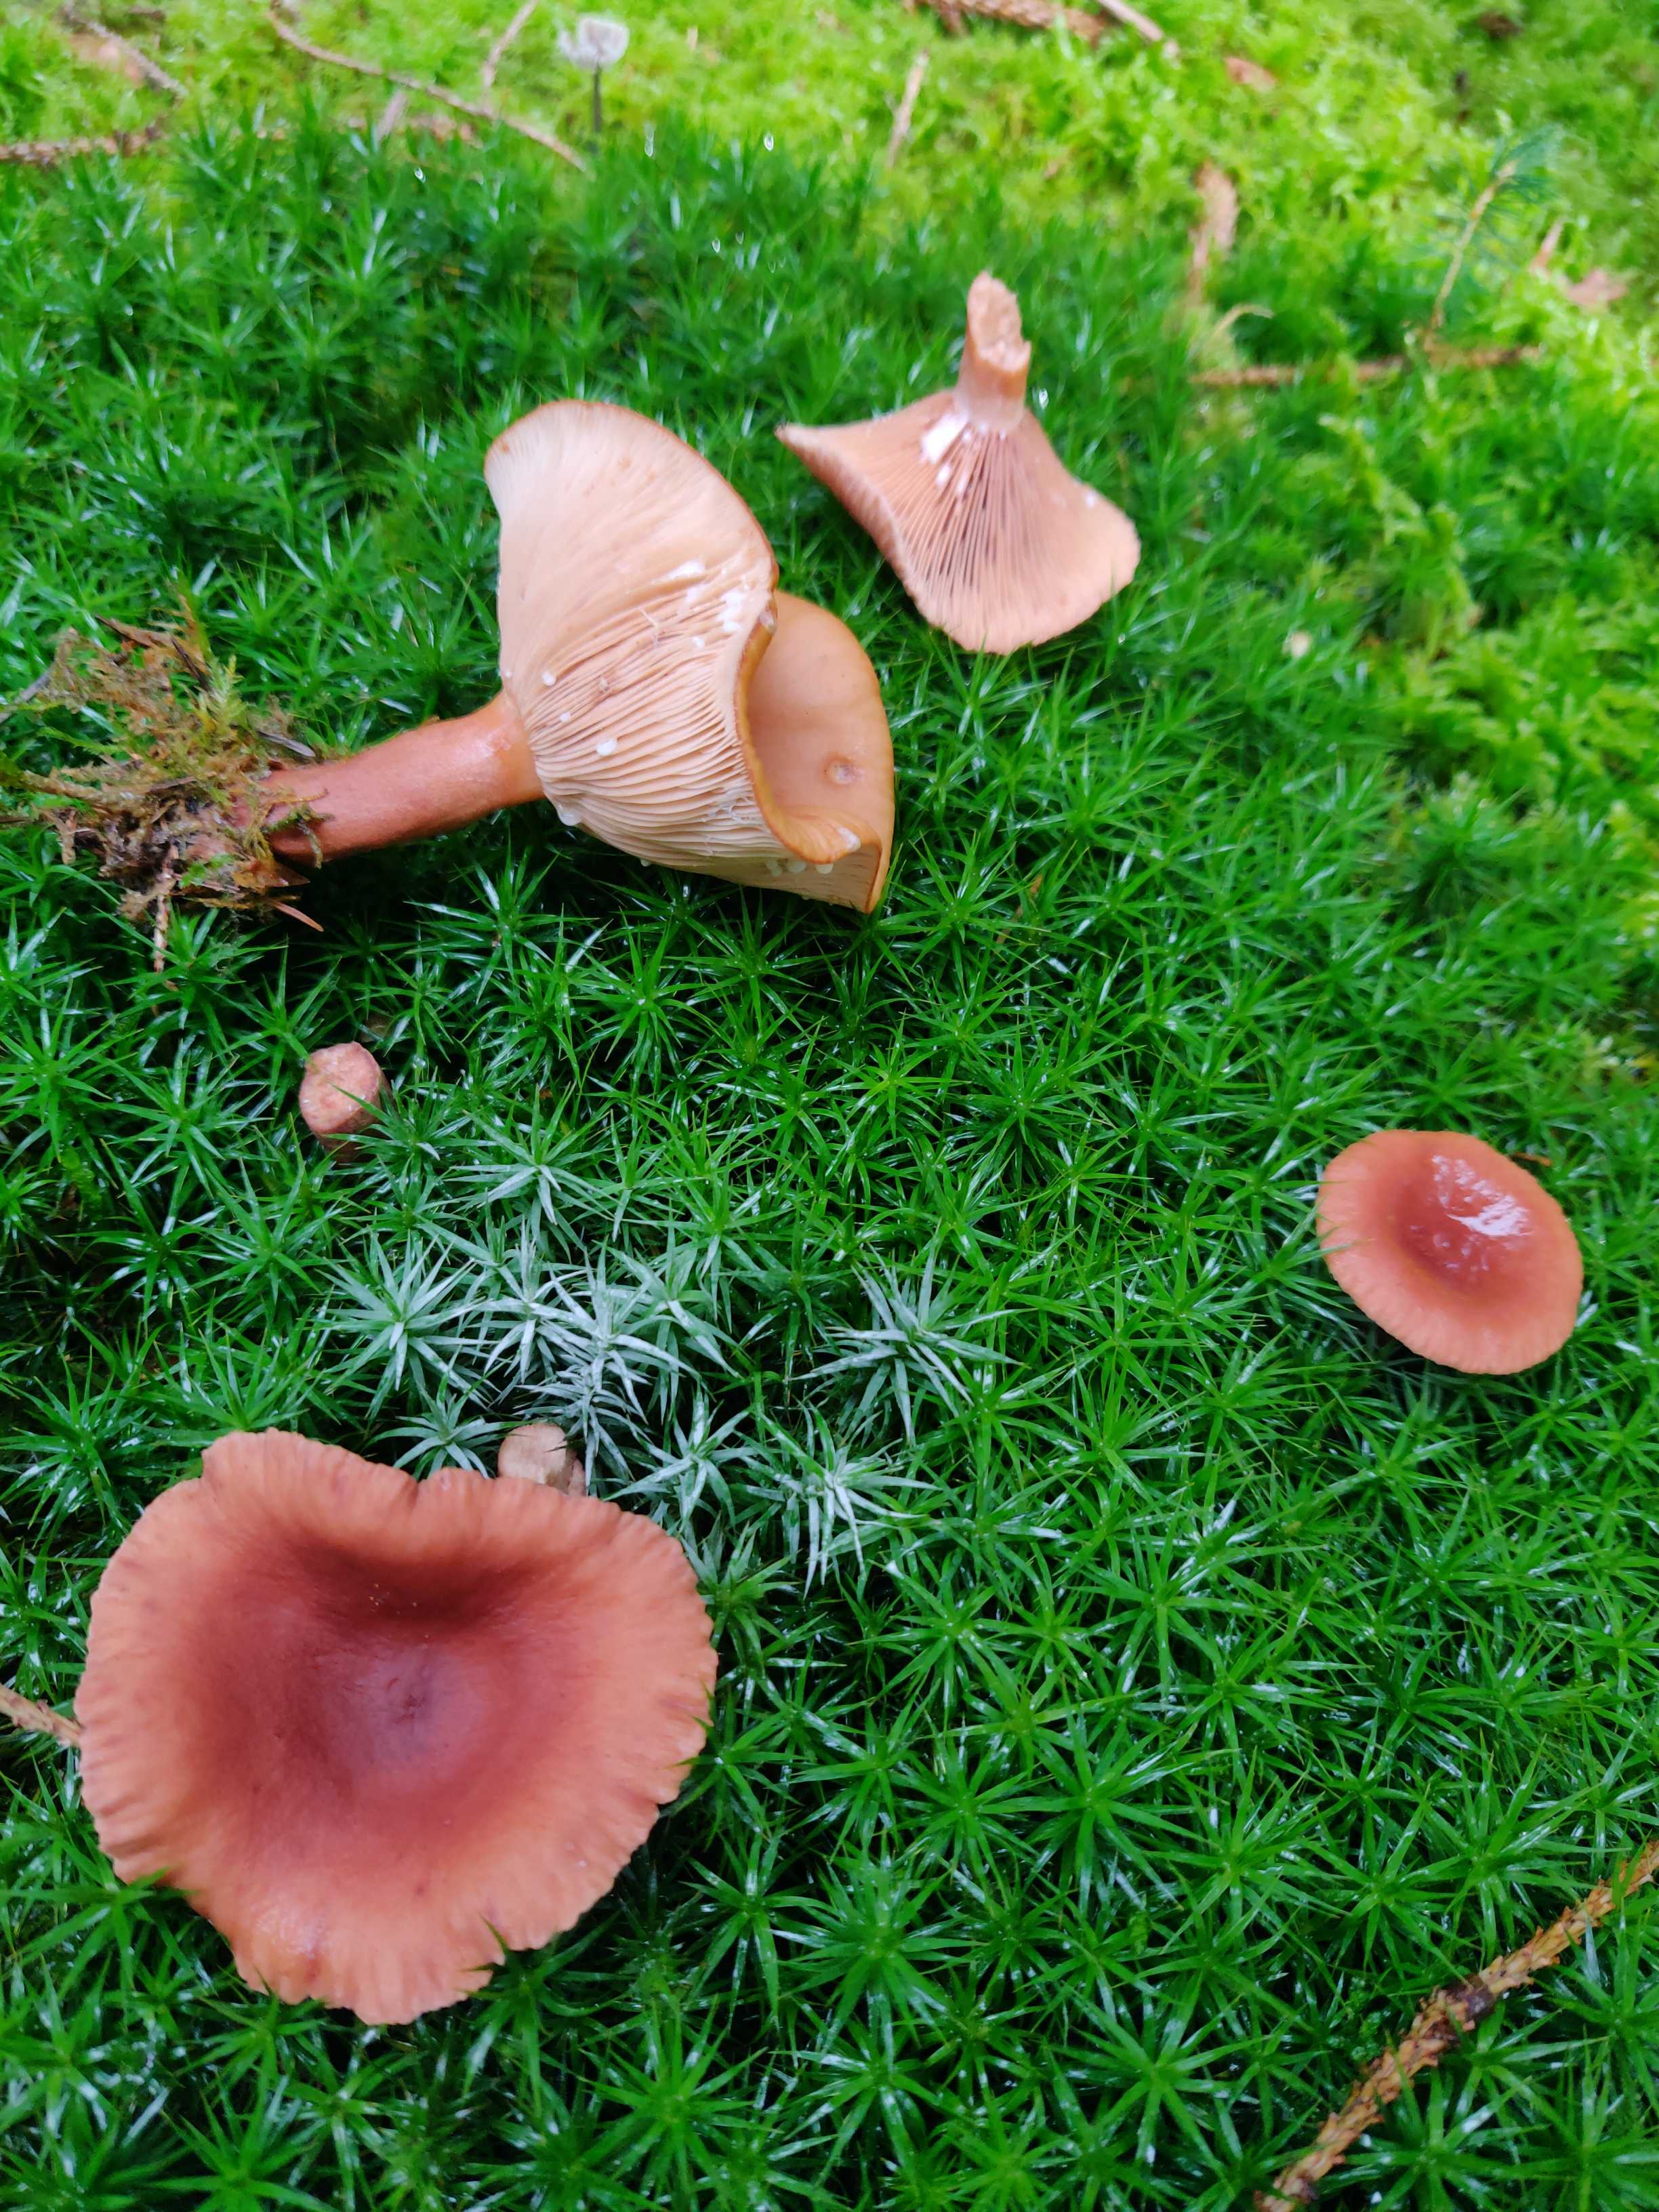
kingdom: Fungi
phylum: Basidiomycota
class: Agaricomycetes
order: Russulales
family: Russulaceae
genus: Lactarius
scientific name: Lactarius tabidus
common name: rynket mælkehat
